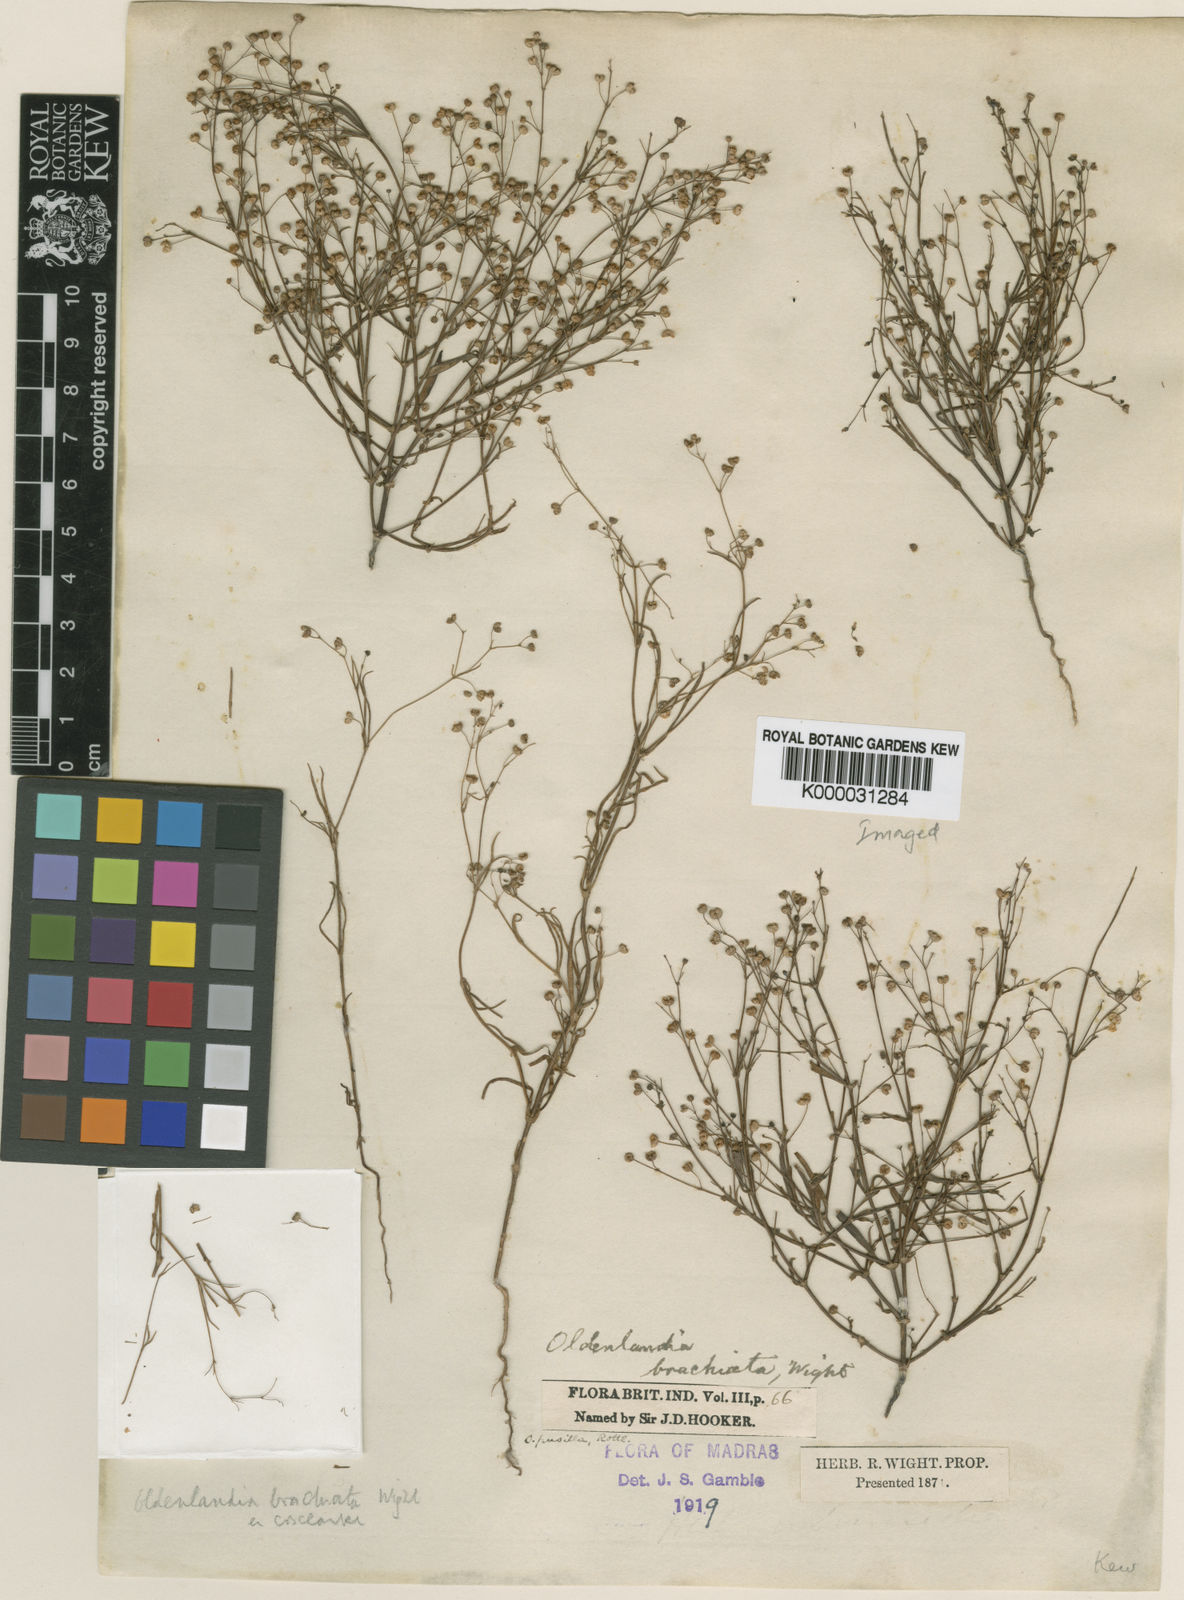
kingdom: Plantae
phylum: Tracheophyta
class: Magnoliopsida
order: Gentianales
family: Rubiaceae
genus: Kohautia
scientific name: Kohautia aspera
